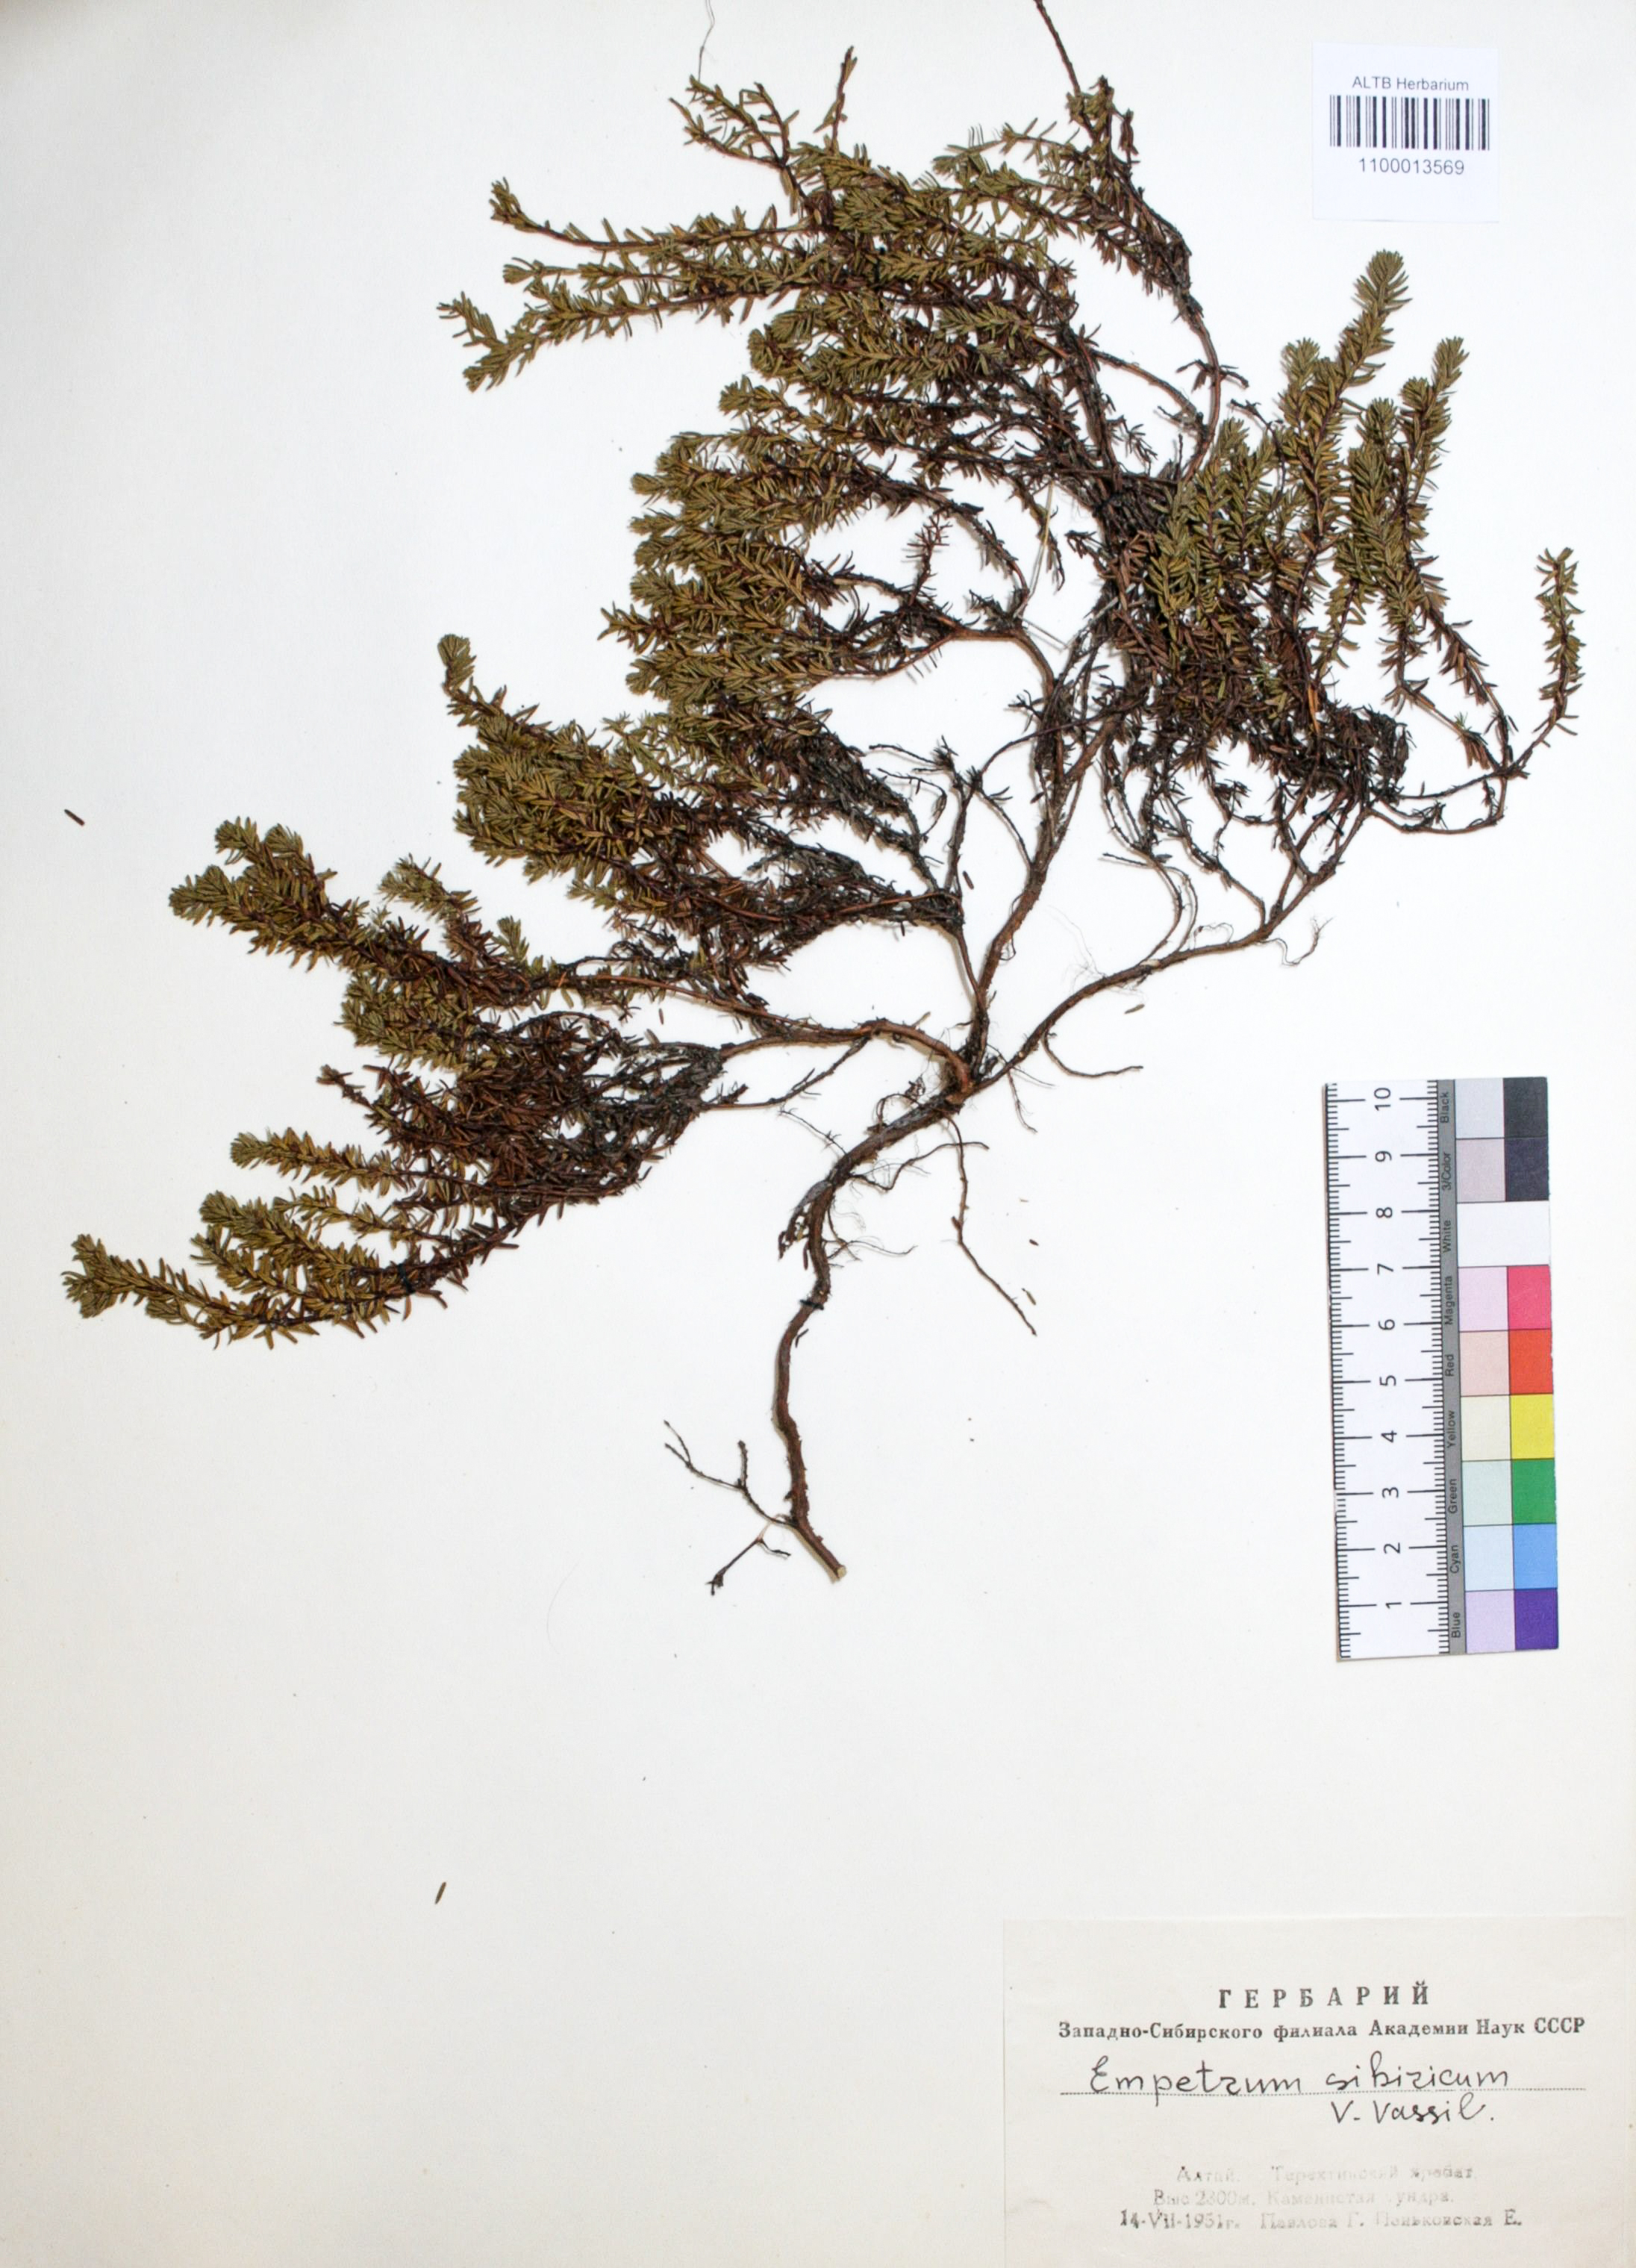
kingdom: Plantae
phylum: Tracheophyta
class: Magnoliopsida
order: Ericales
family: Ericaceae
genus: Empetrum
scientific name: Empetrum nigrum
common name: Black crowberry
